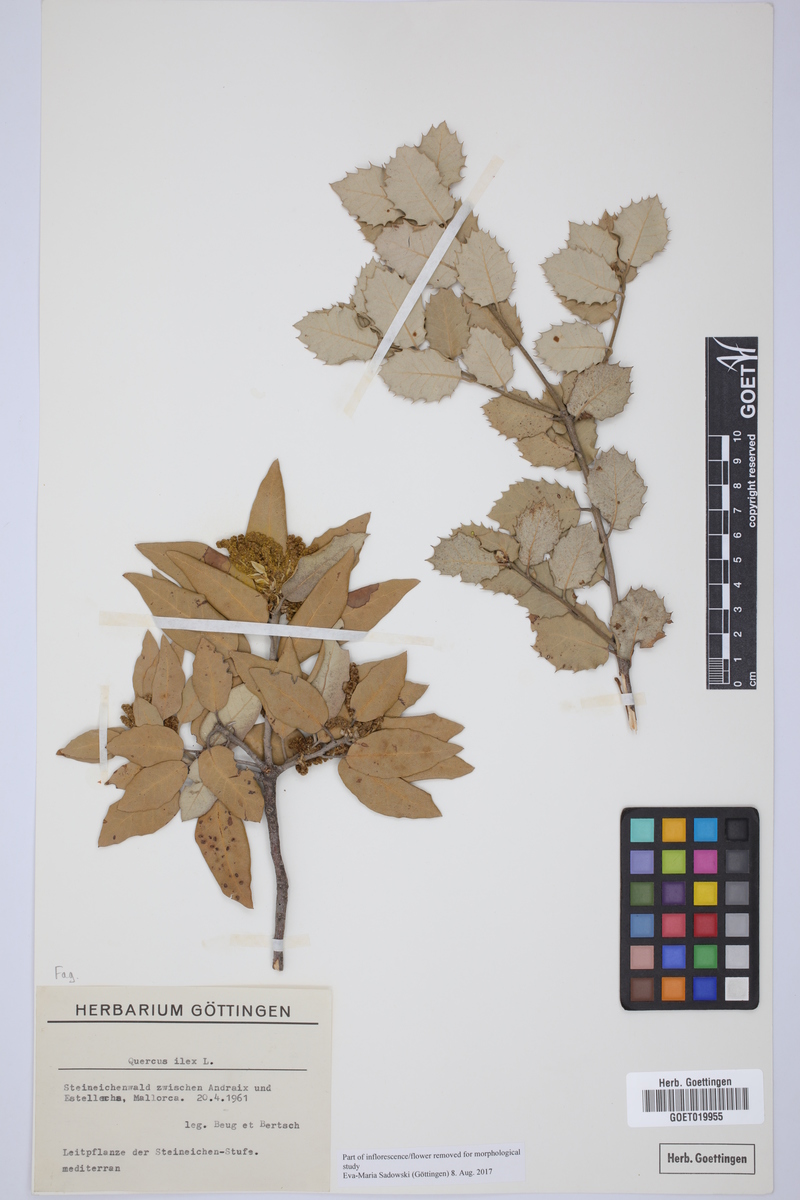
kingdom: Plantae
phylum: Tracheophyta
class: Magnoliopsida
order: Fagales
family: Fagaceae
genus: Quercus
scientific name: Quercus ilex
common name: Evergreen oak
